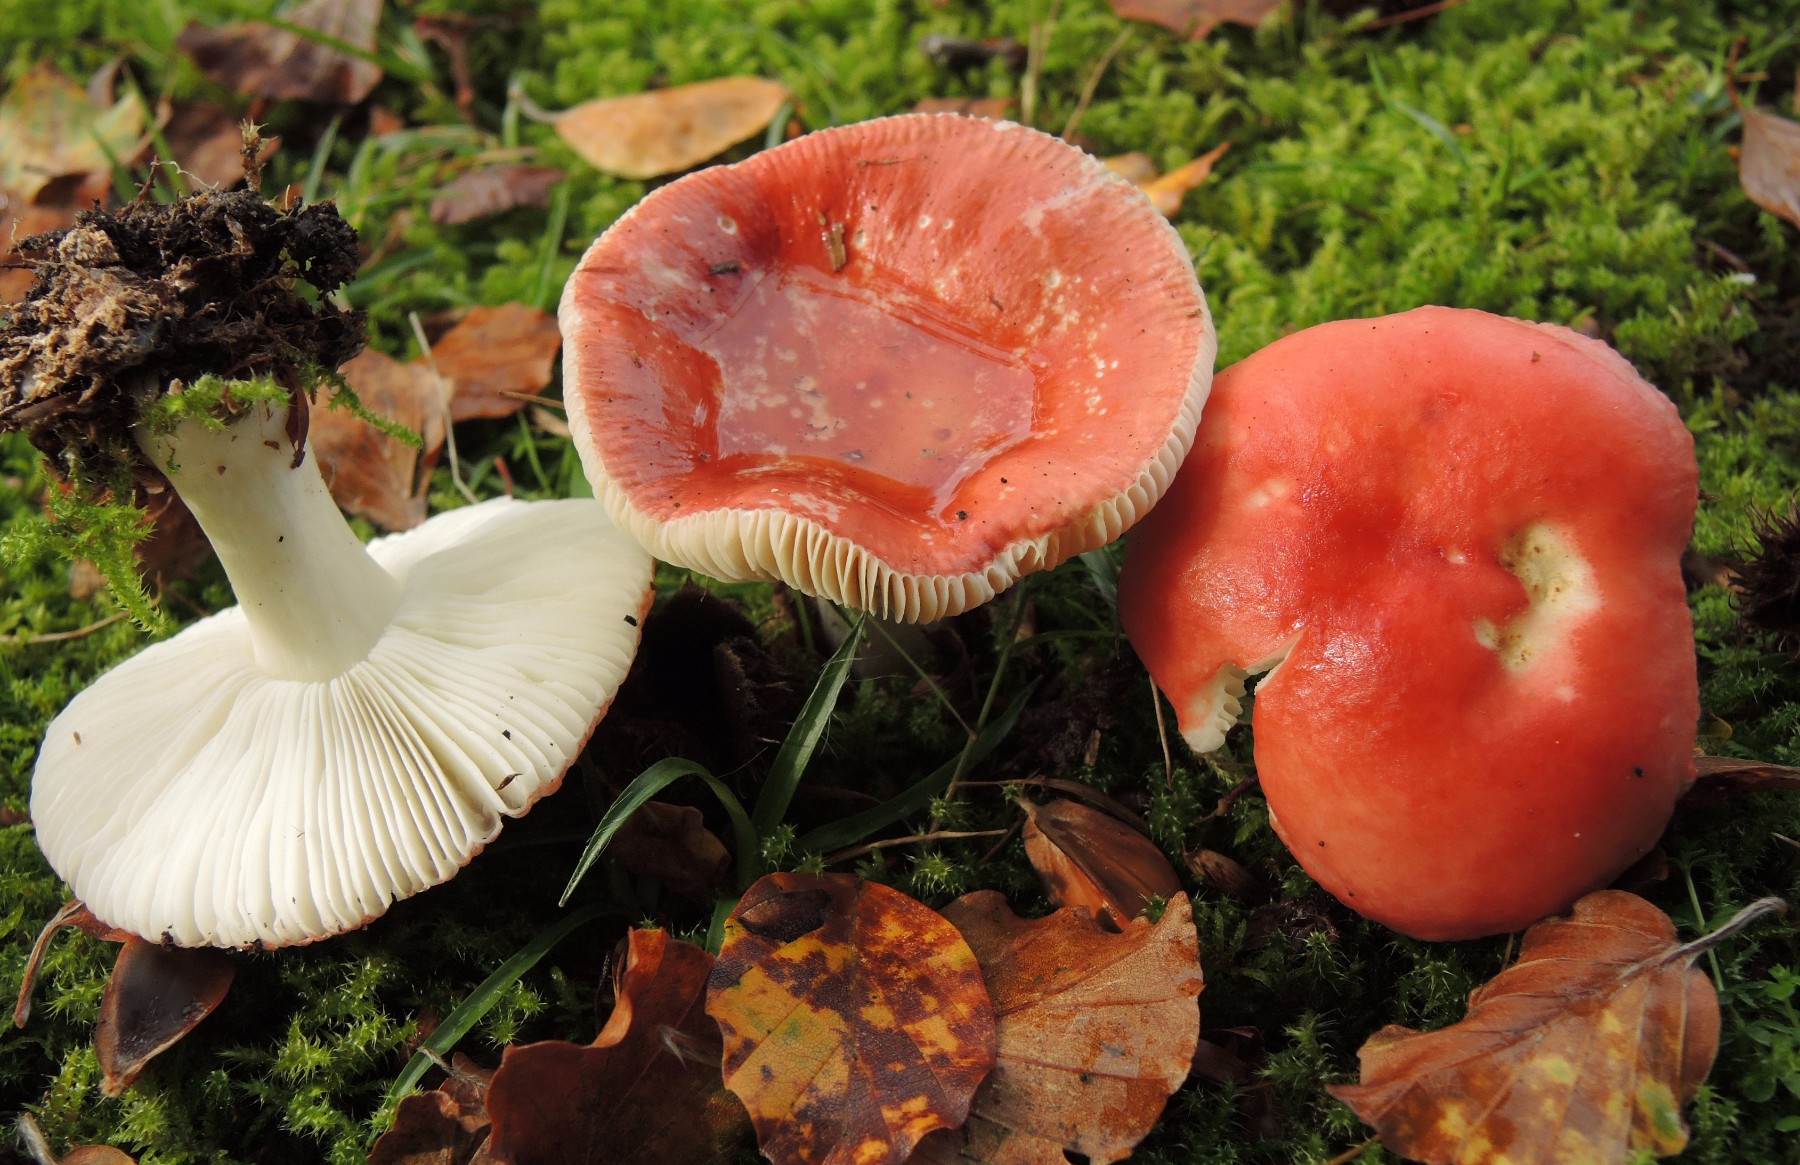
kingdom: Fungi
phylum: Basidiomycota
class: Agaricomycetes
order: Russulales
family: Russulaceae
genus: Russula
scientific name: Russula nobilis
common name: lille gift-skørhat
